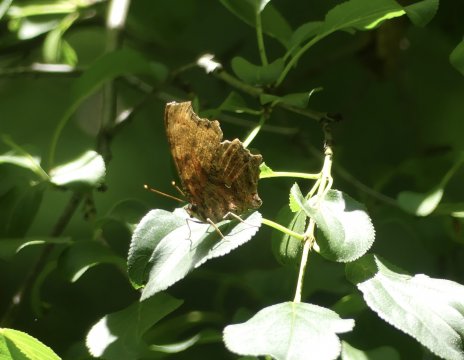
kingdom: Animalia
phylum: Arthropoda
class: Insecta
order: Lepidoptera
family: Nymphalidae
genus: Polygonia
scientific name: Polygonia comma
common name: Eastern Comma
